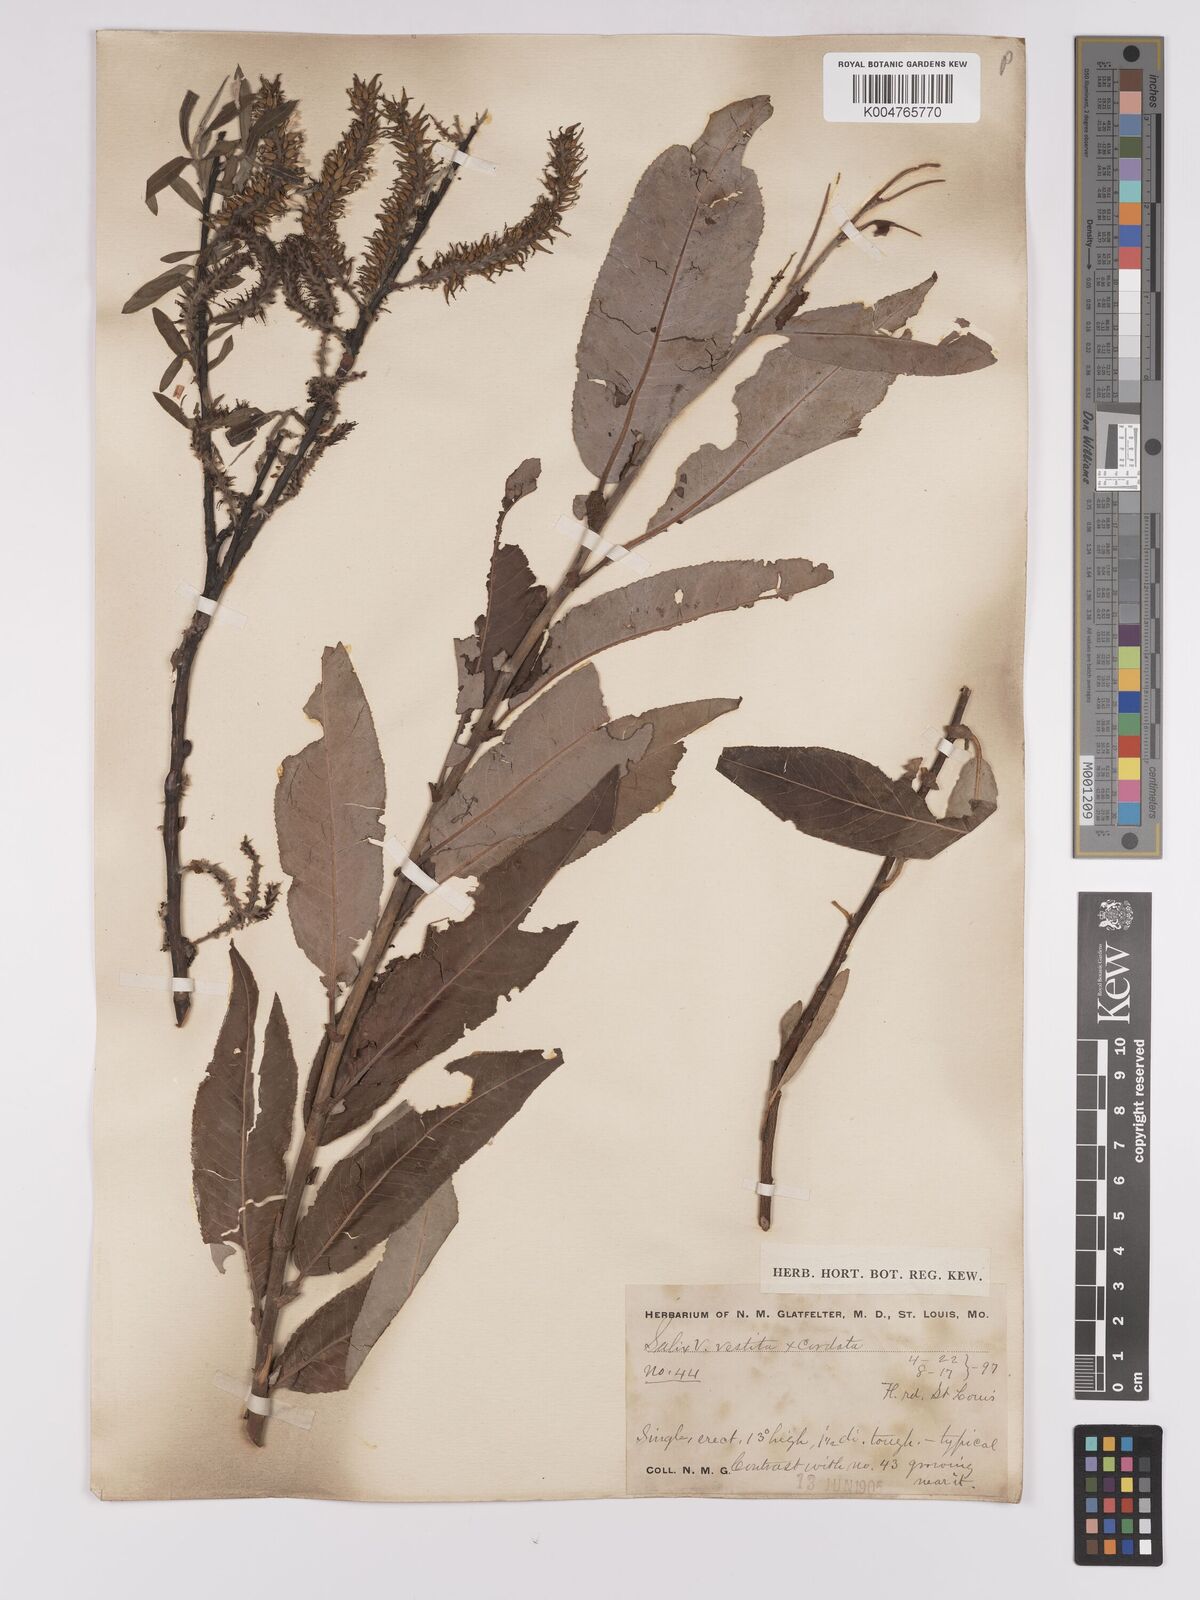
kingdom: Plantae
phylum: Tracheophyta
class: Magnoliopsida
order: Malpighiales
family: Salicaceae
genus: Salix
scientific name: Salix cordata
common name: Heart-leaf willow
